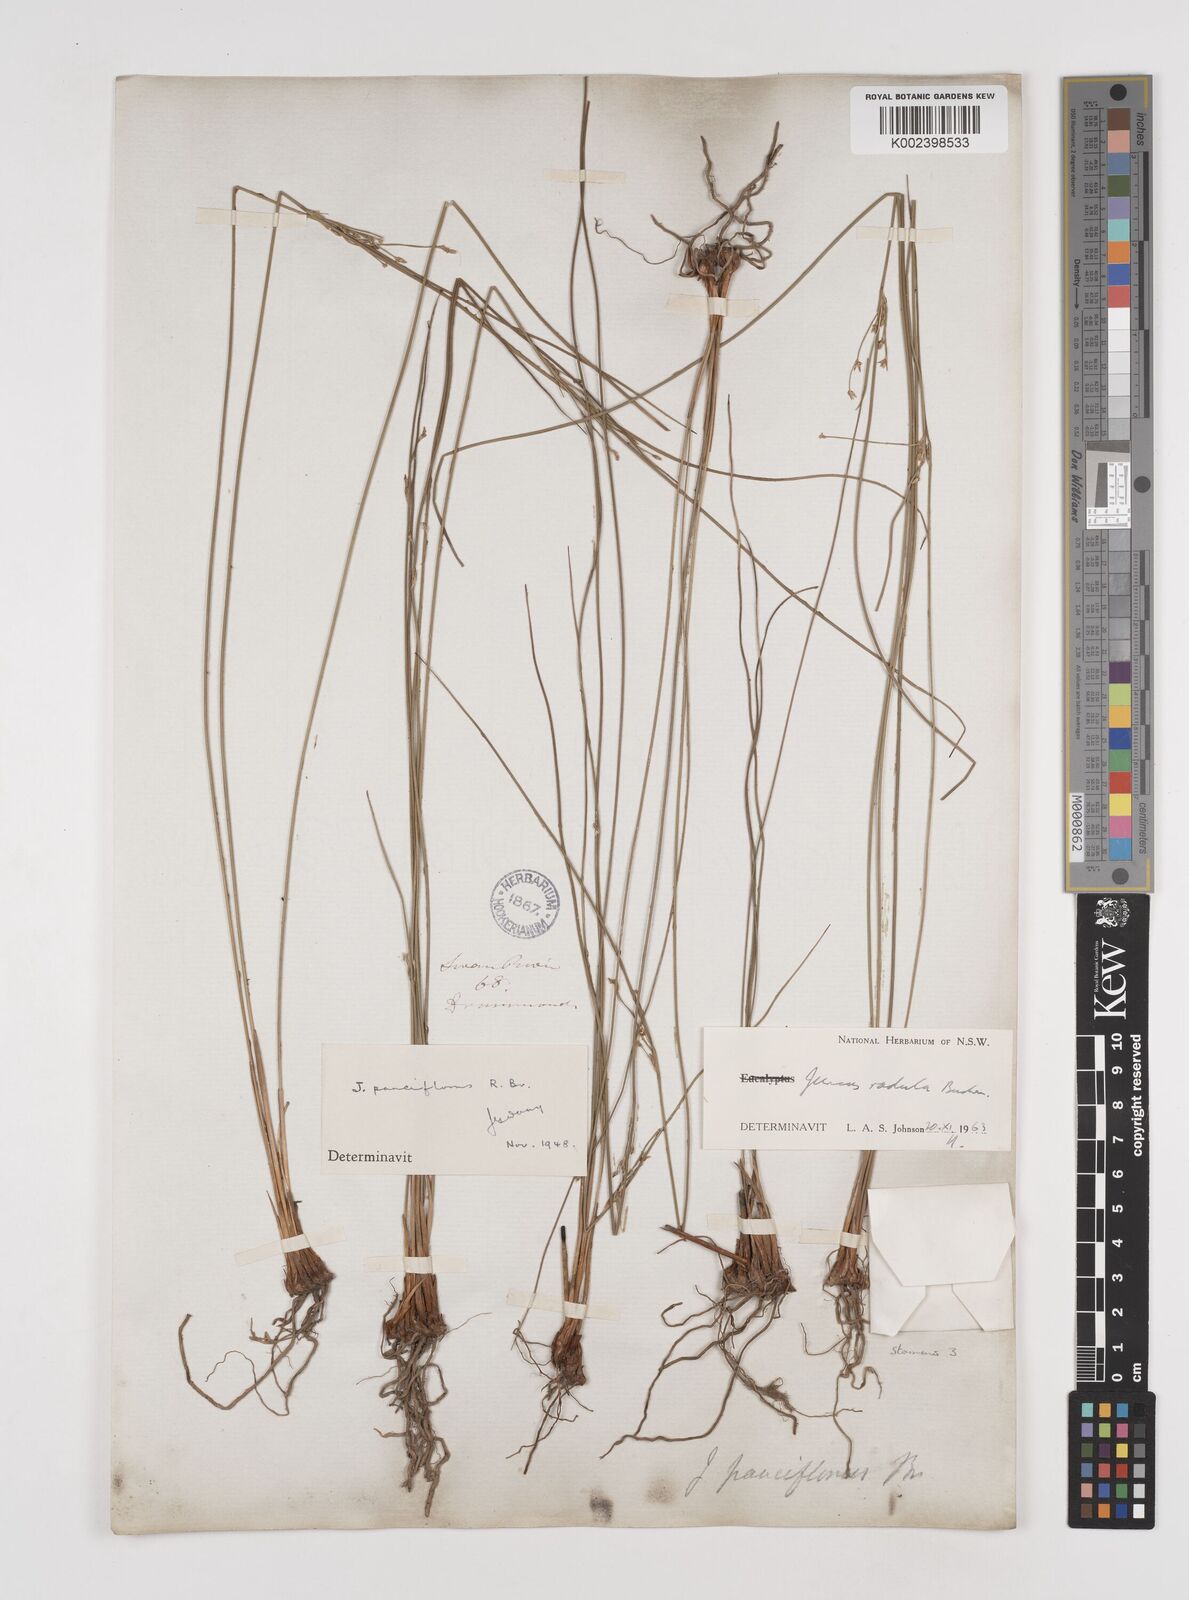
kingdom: Plantae
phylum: Tracheophyta
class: Liliopsida
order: Poales
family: Juncaceae
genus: Juncus
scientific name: Juncus radula
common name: Hoary rush
